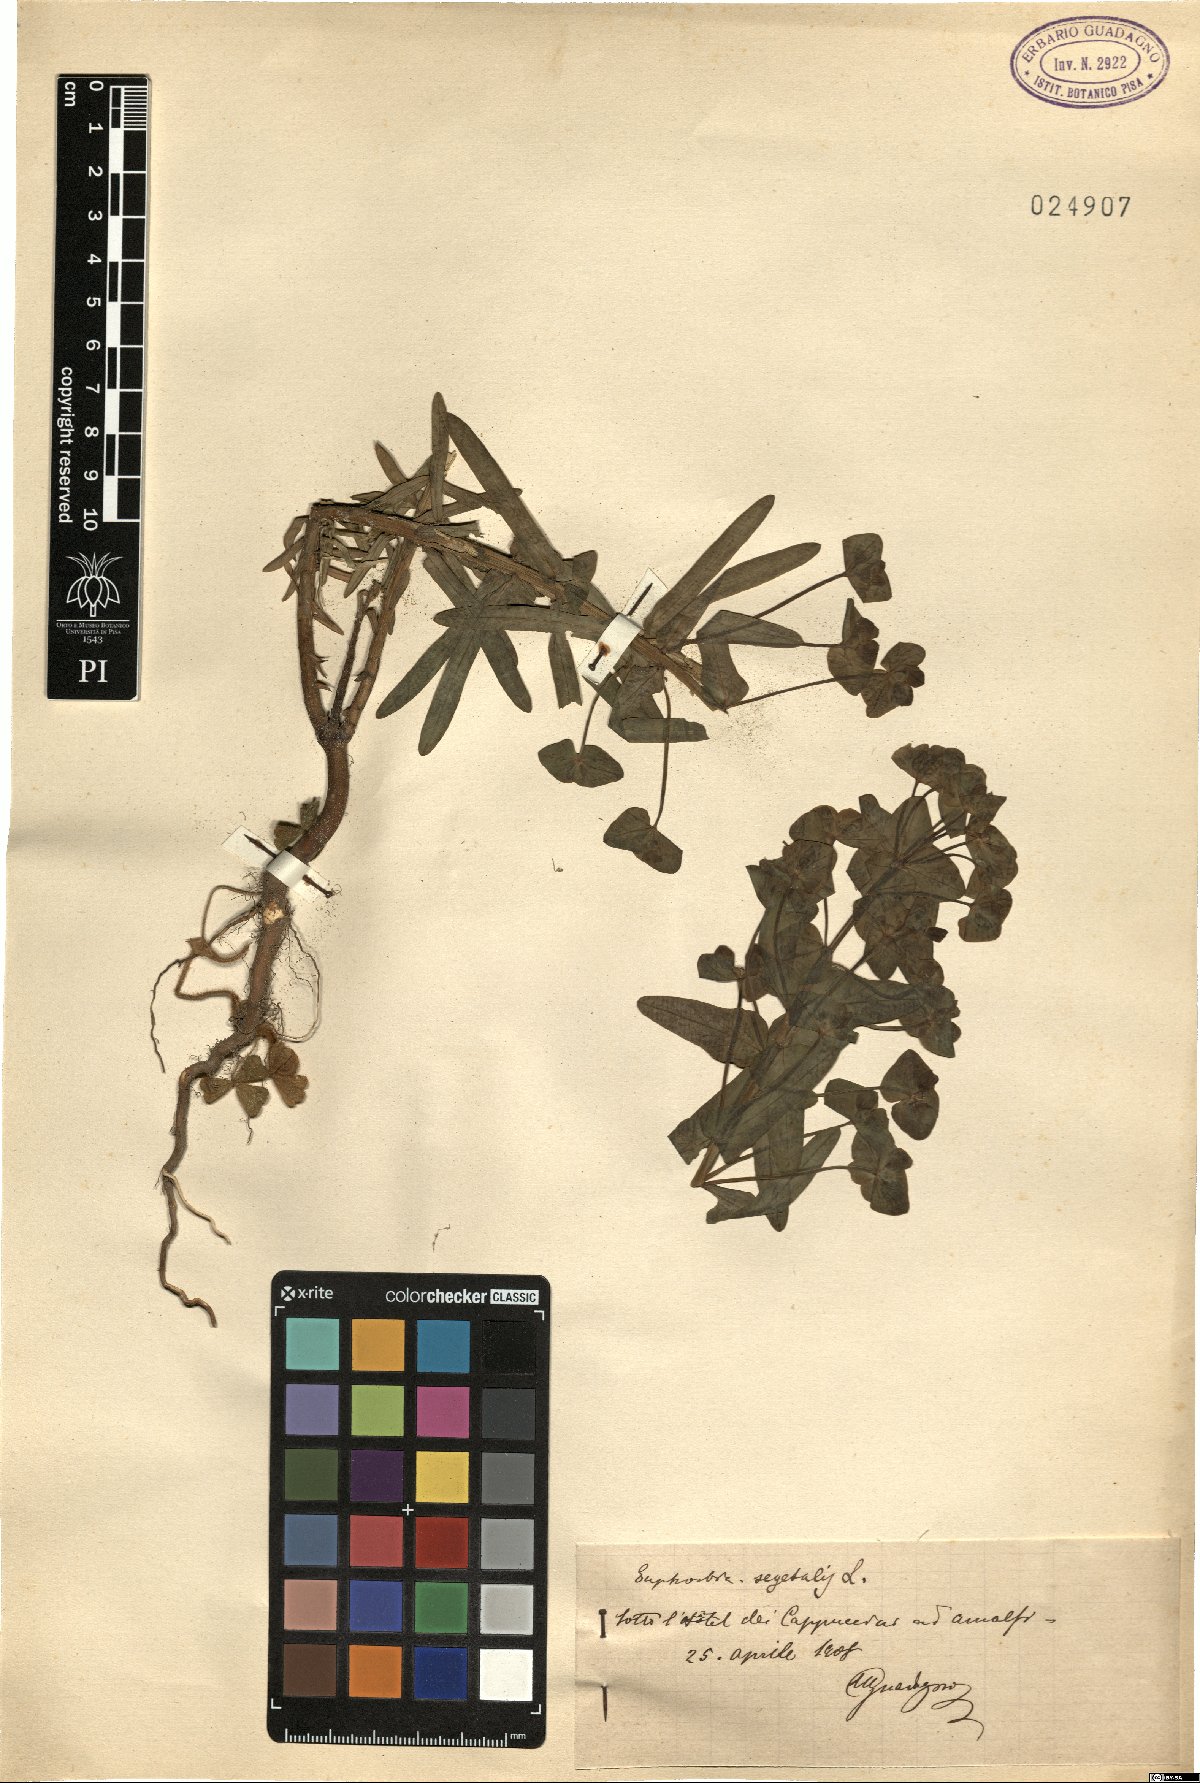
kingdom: Plantae
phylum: Tracheophyta
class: Magnoliopsida
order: Malpighiales
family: Euphorbiaceae
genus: Euphorbia
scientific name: Euphorbia segetalis
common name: Corn spurge
